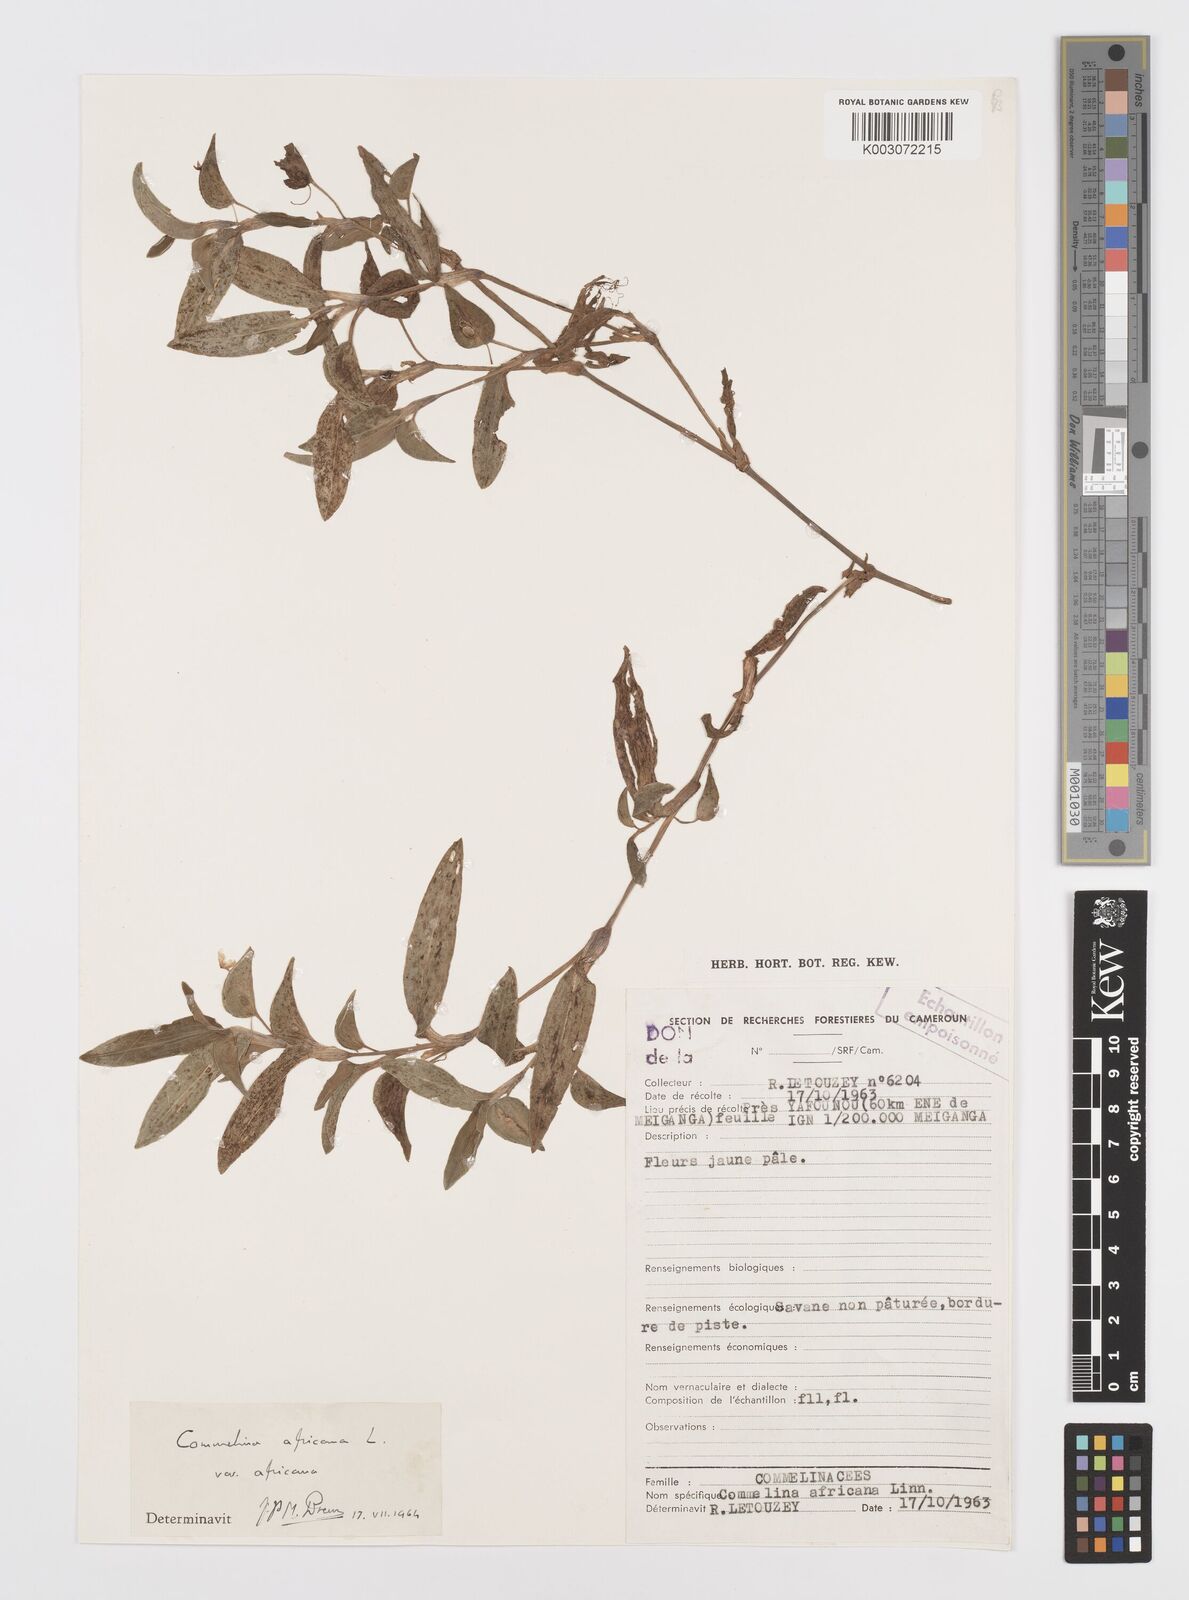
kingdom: Plantae
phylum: Tracheophyta
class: Liliopsida
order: Commelinales
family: Commelinaceae
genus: Commelina
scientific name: Commelina africana
